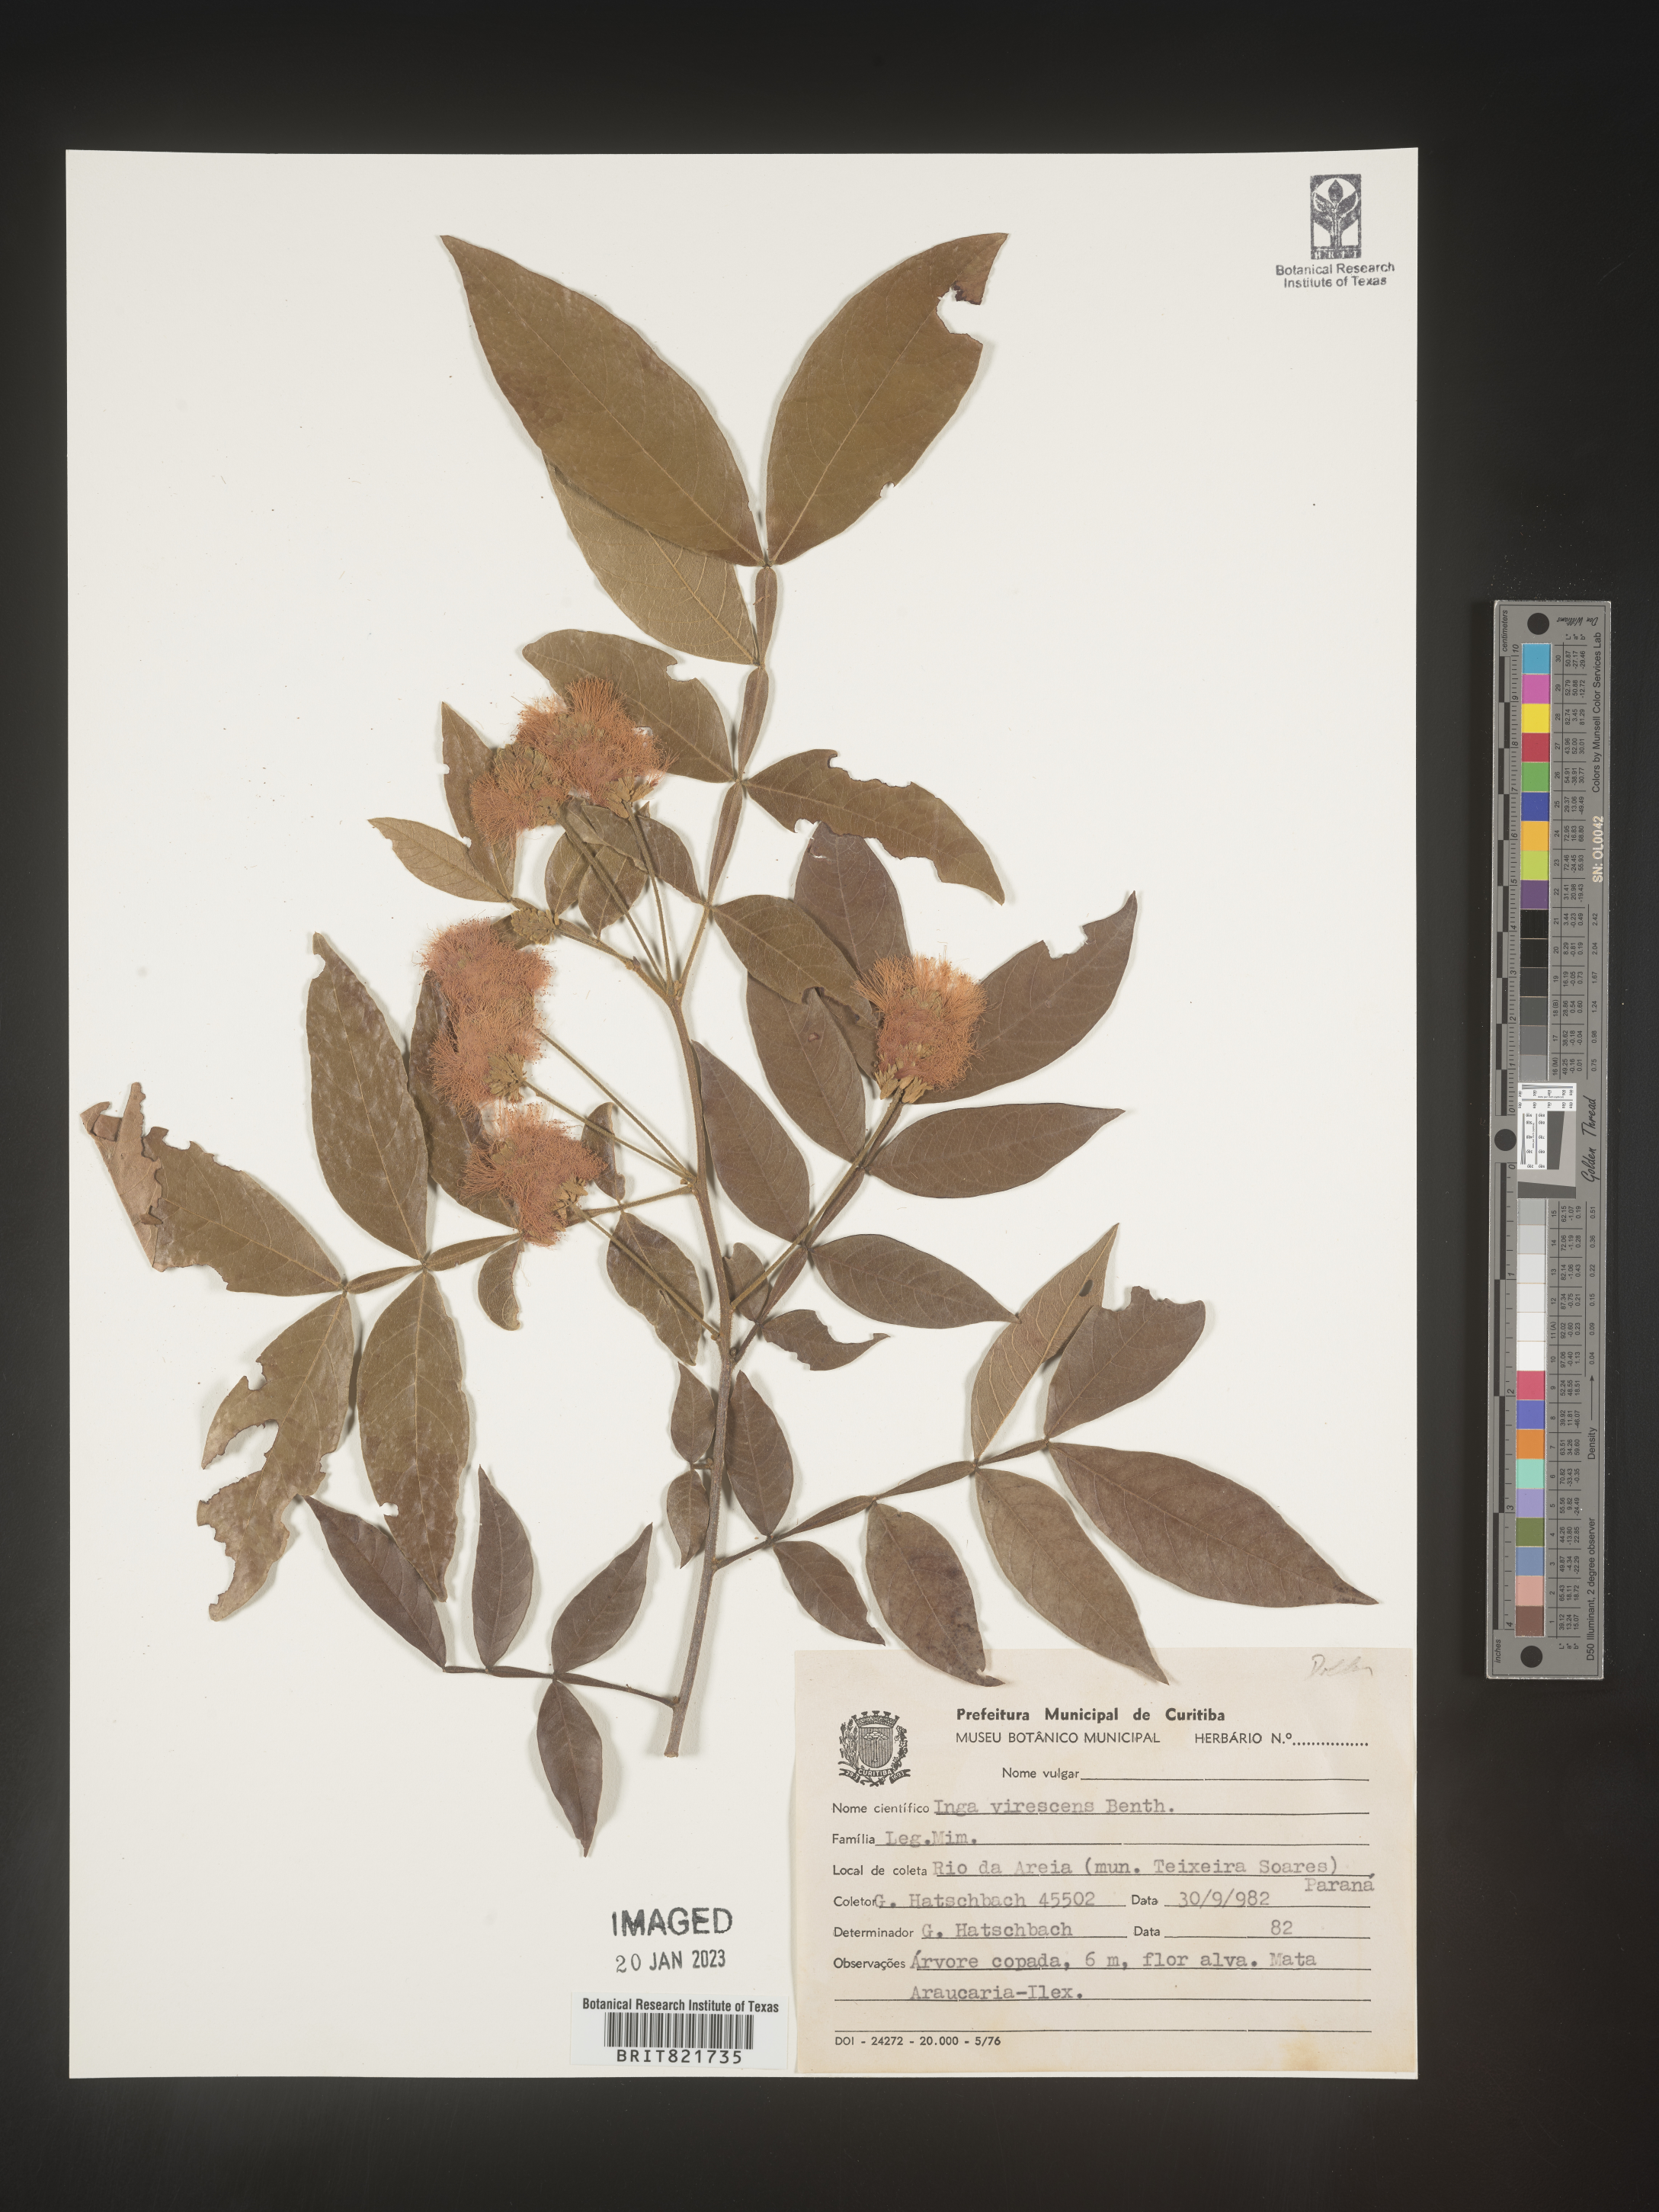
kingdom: Plantae
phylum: Tracheophyta
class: Magnoliopsida
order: Fabales
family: Fabaceae
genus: Inga
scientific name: Inga
